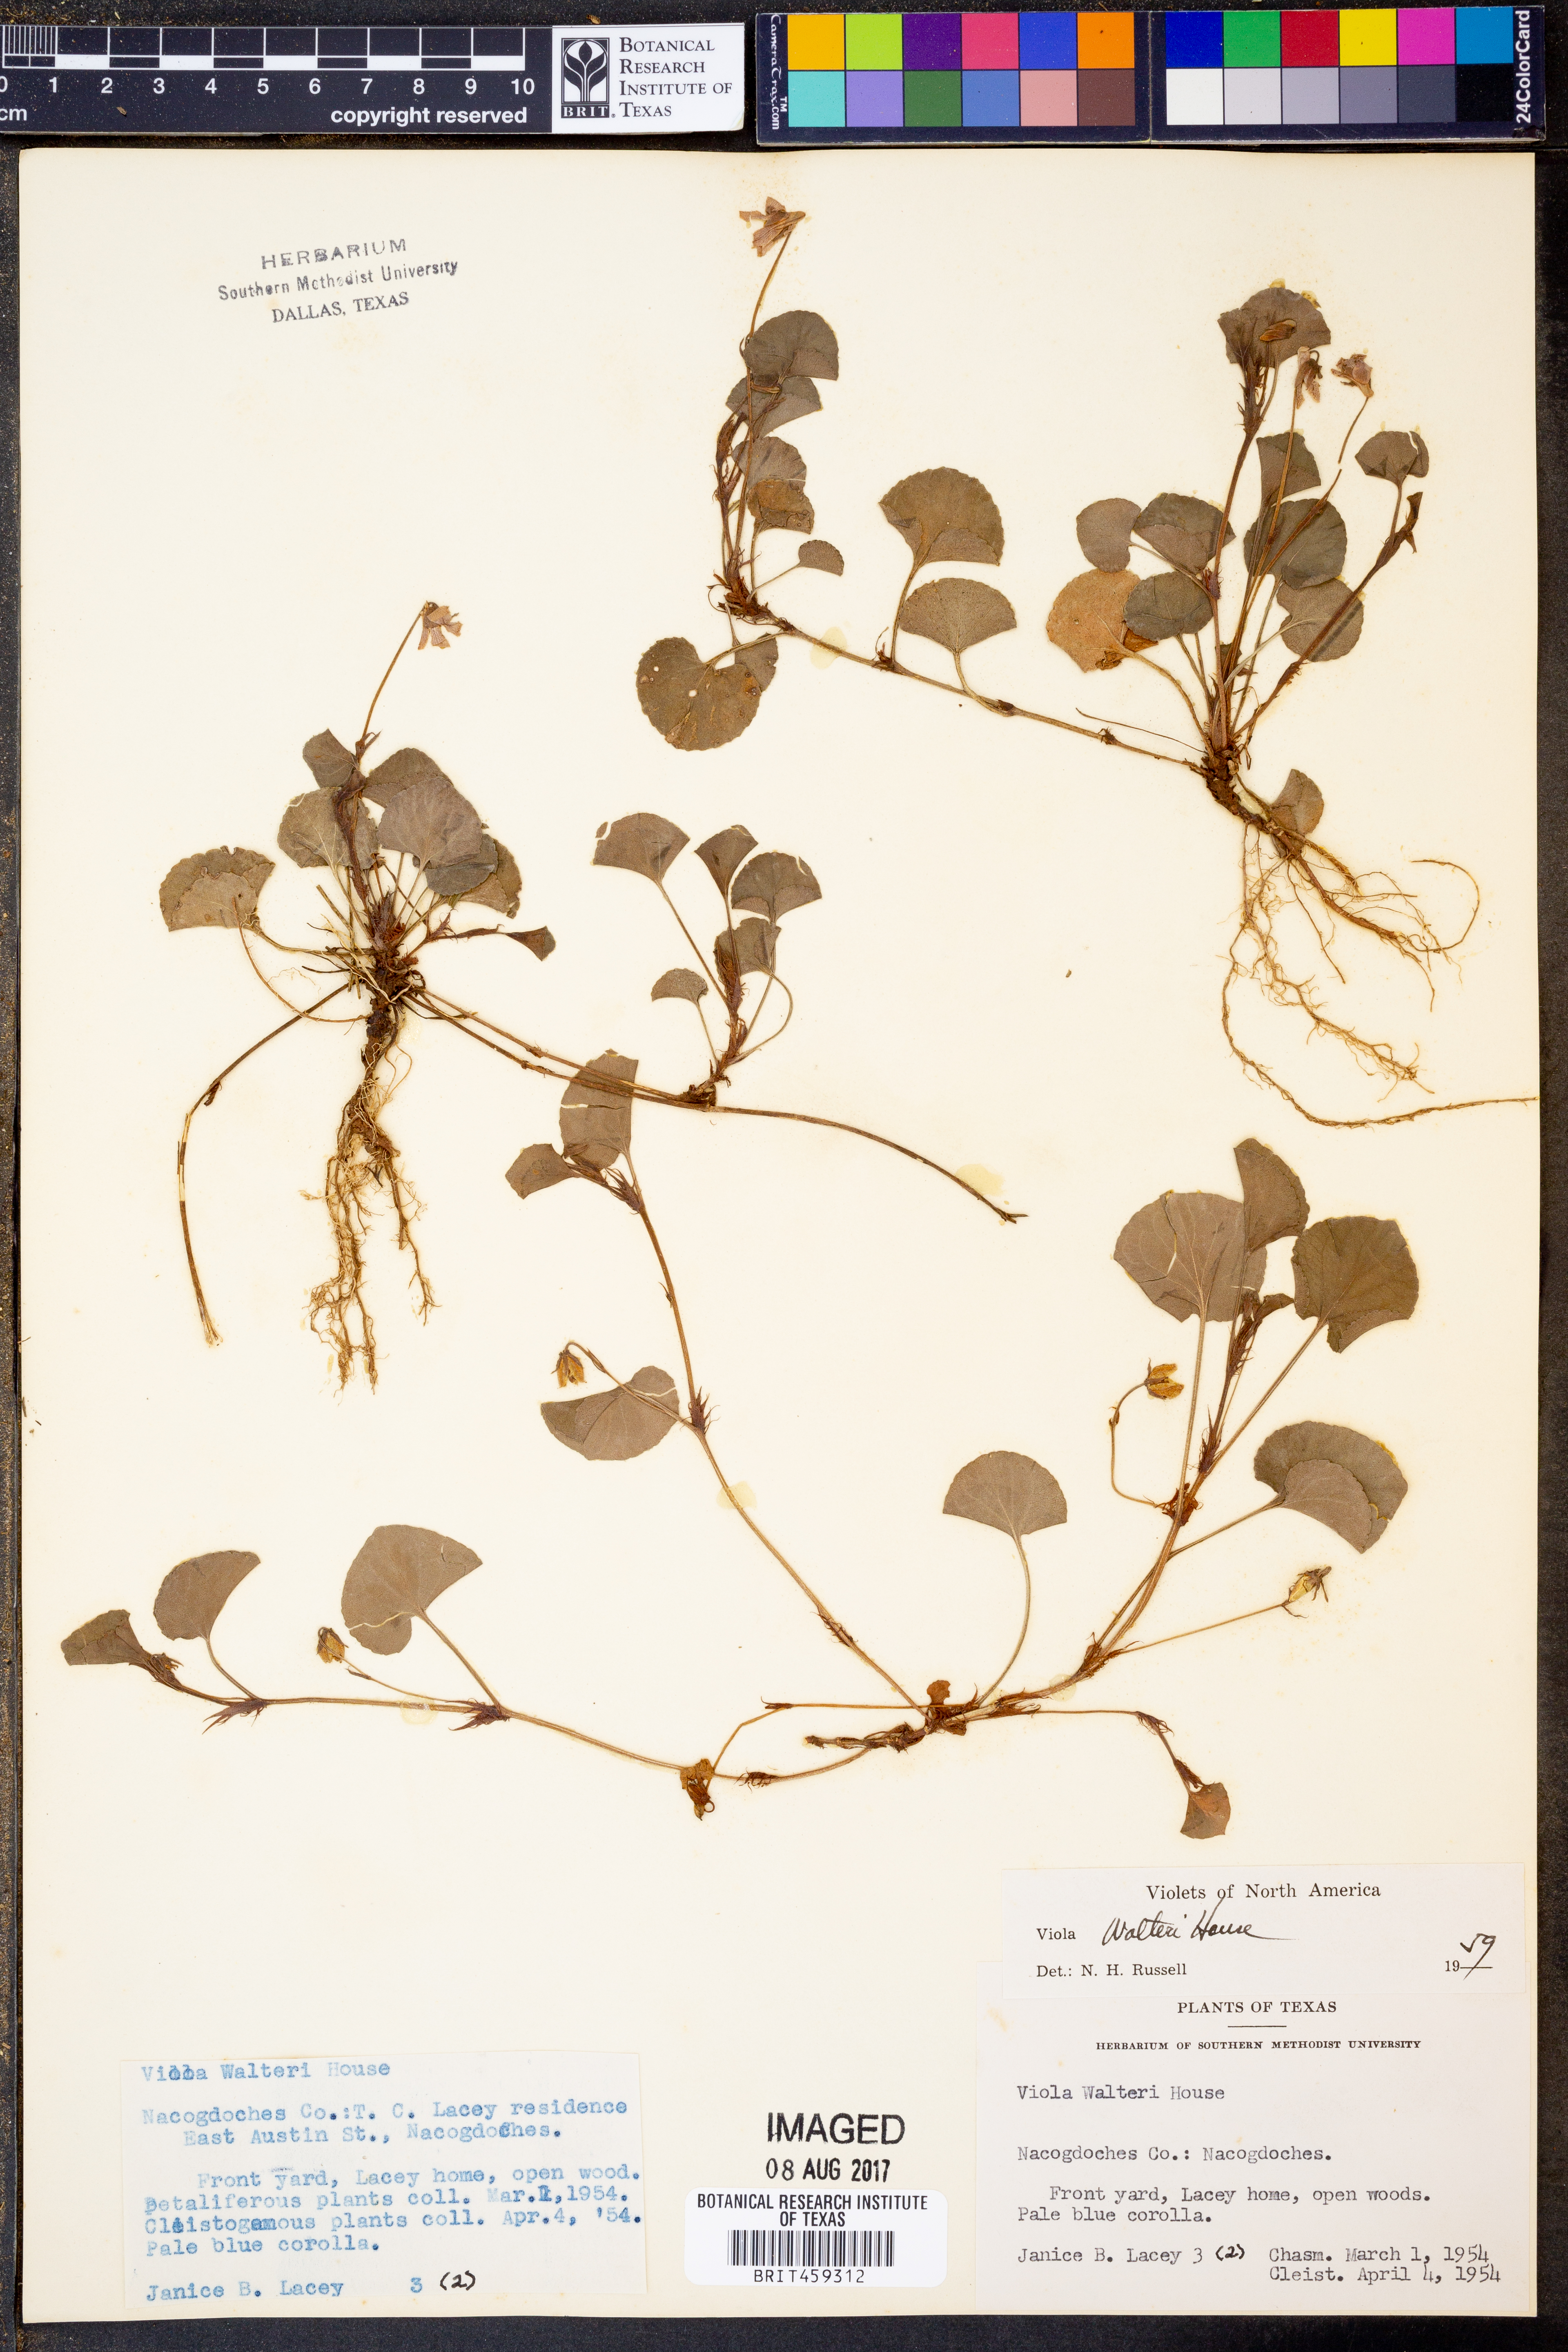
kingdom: Plantae
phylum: Tracheophyta
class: Magnoliopsida
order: Malpighiales
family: Violaceae
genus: Viola
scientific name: Viola walteri
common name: Prostrate southern violet
